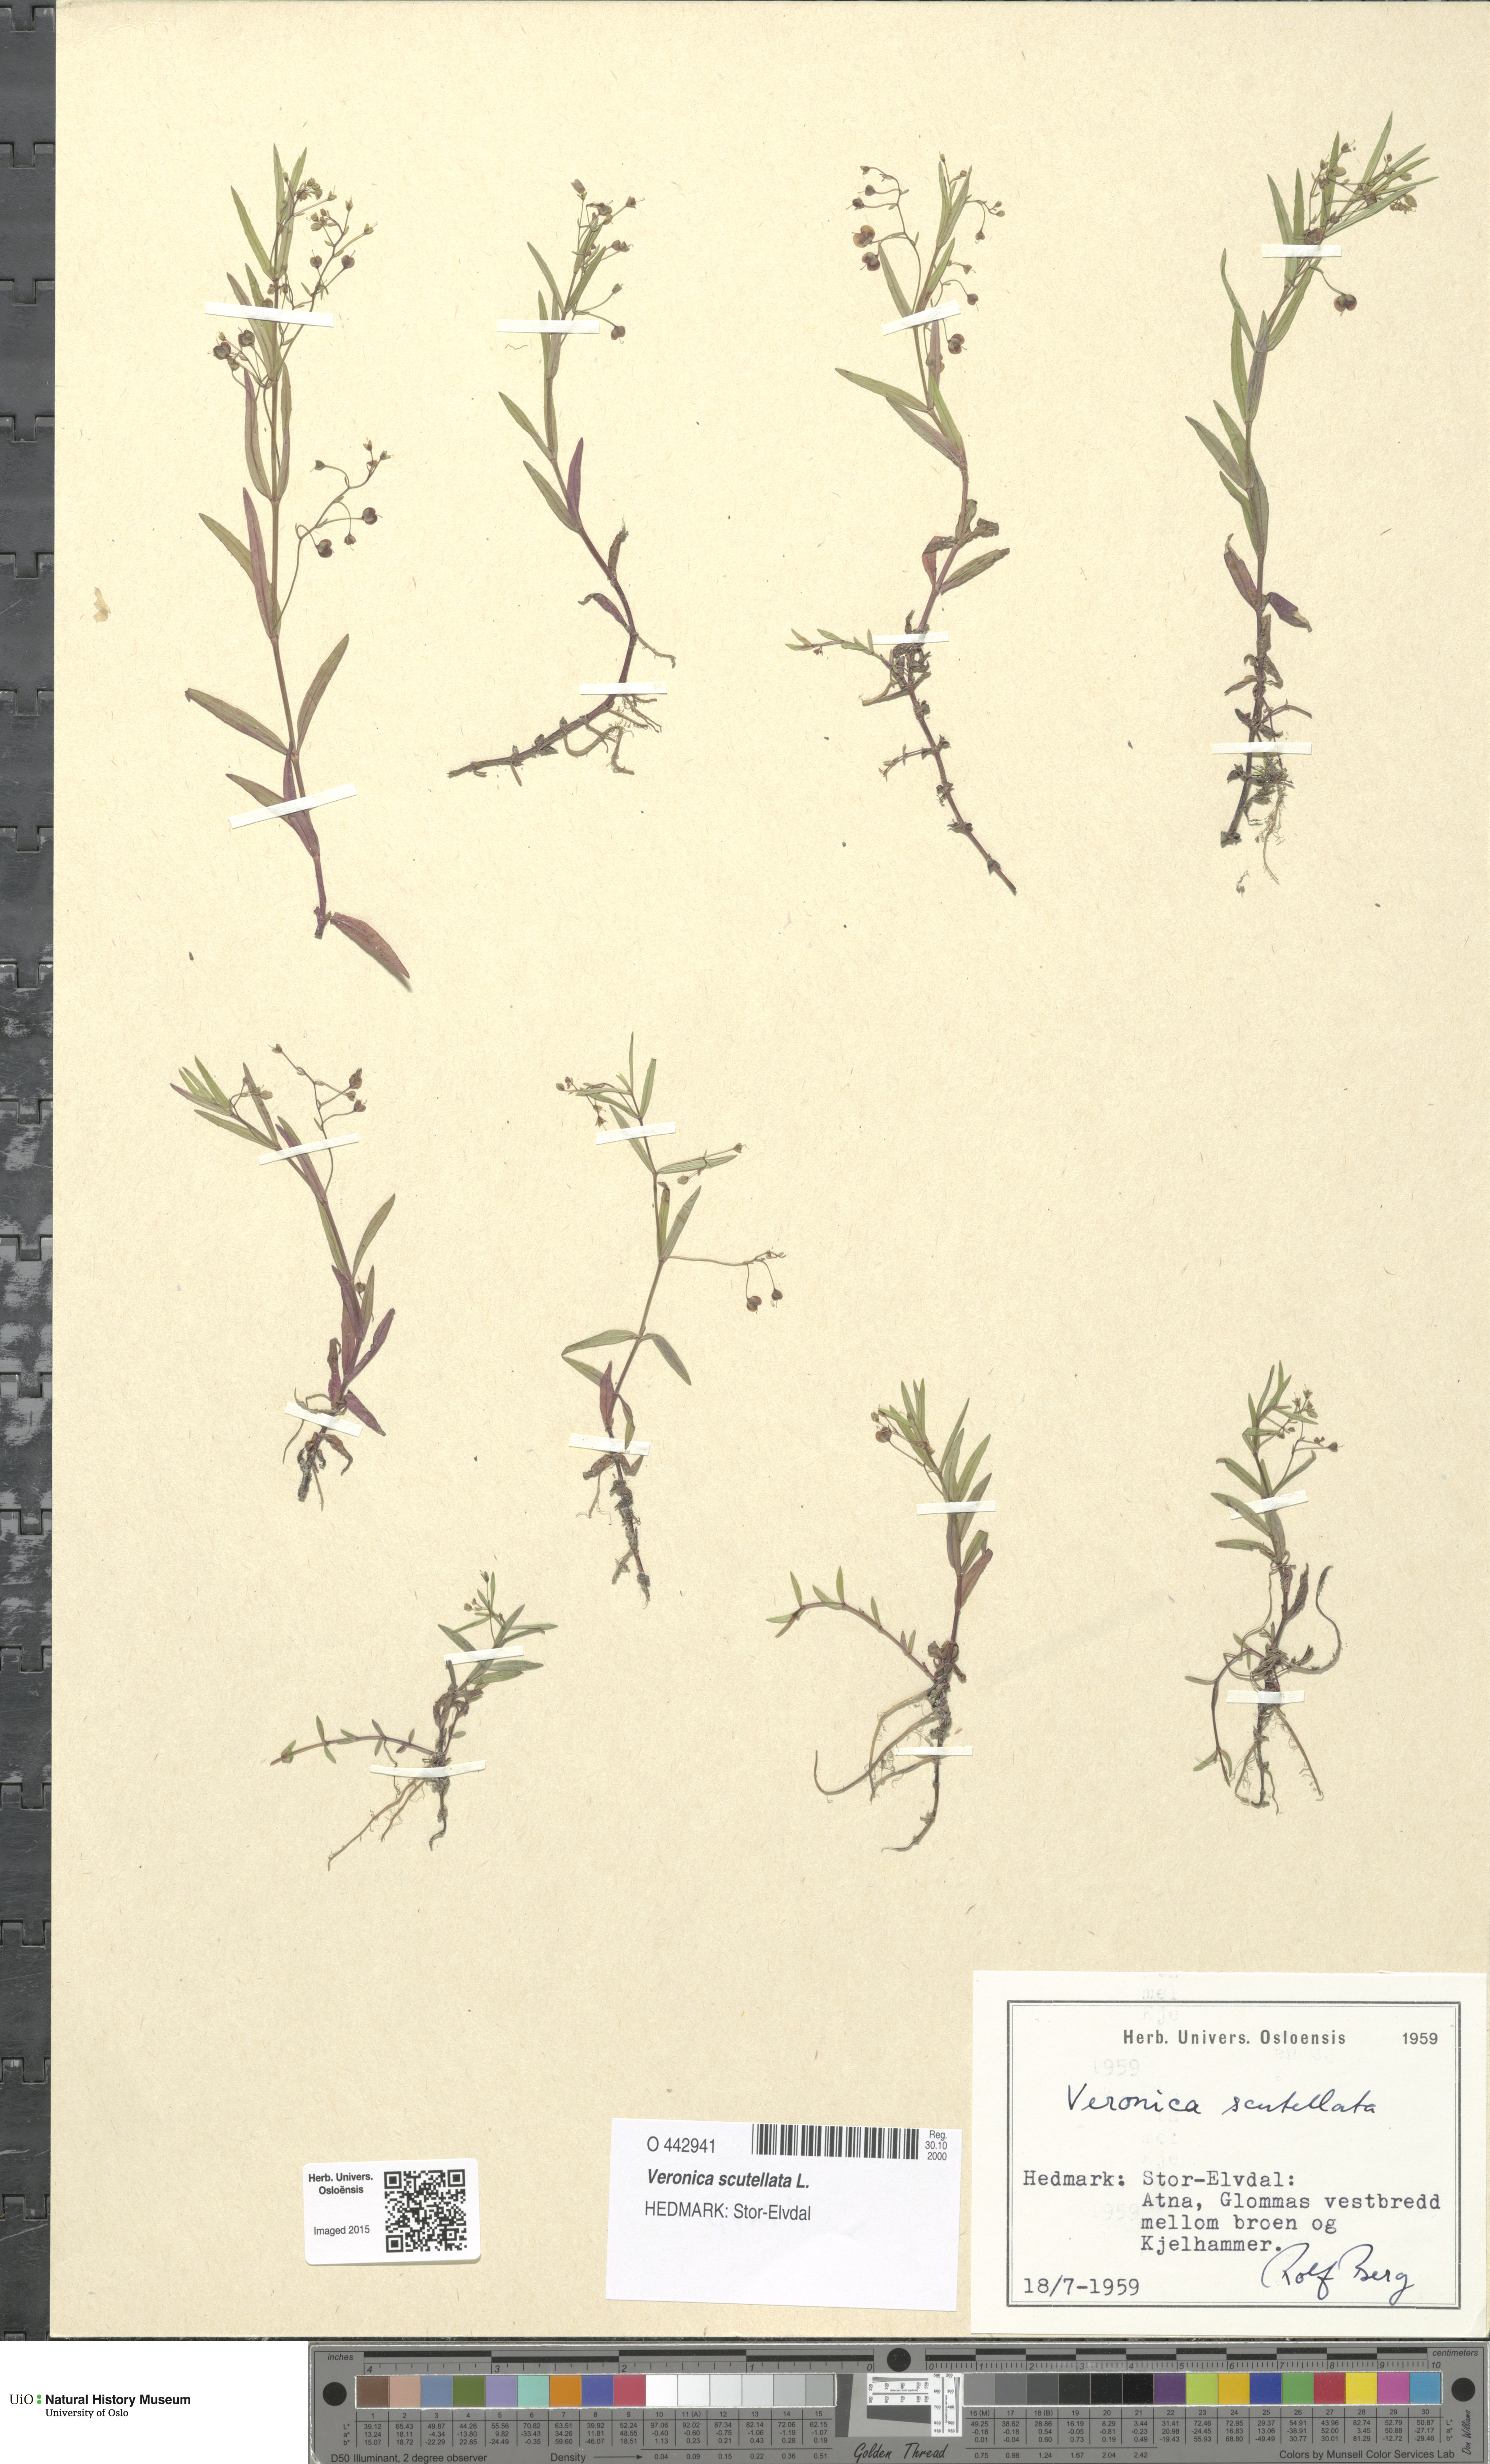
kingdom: Plantae
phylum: Tracheophyta
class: Magnoliopsida
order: Lamiales
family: Plantaginaceae
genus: Veronica
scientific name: Veronica scutellata
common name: Marsh speedwell
